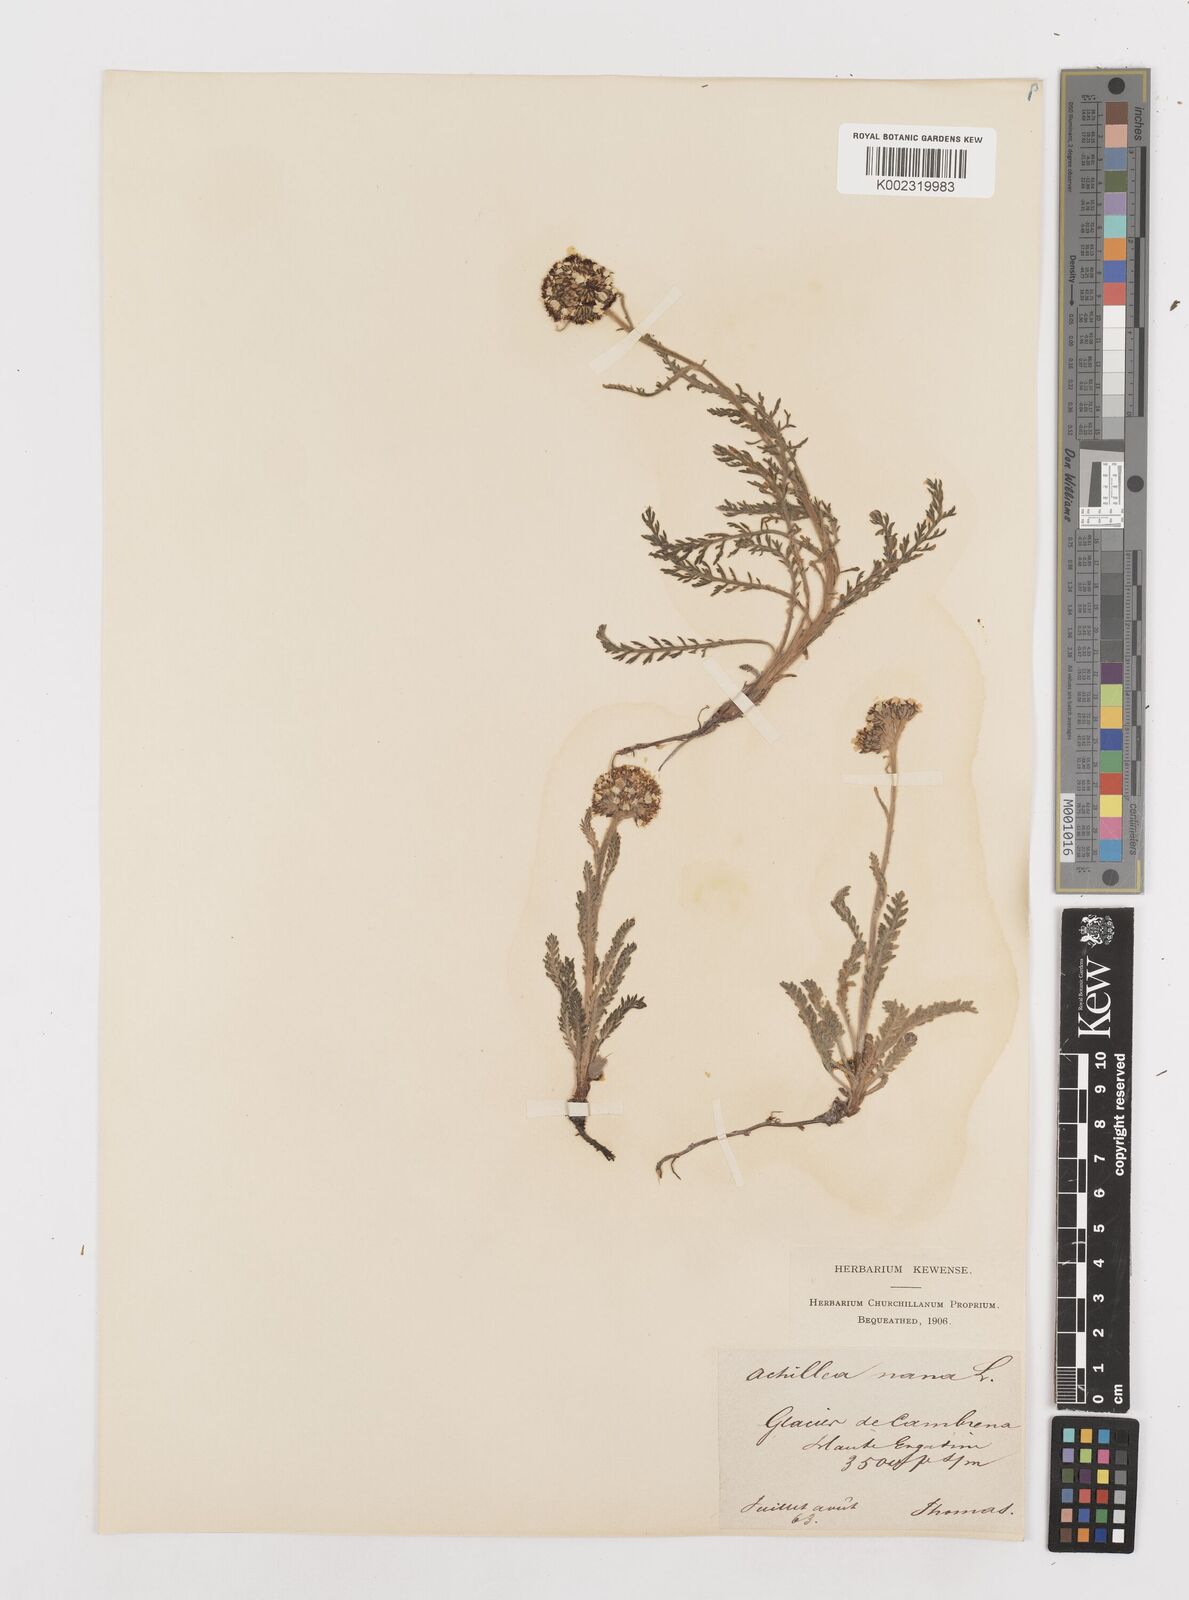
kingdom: Plantae
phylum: Tracheophyta
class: Magnoliopsida
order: Asterales
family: Asteraceae
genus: Achillea
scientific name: Achillea nana
